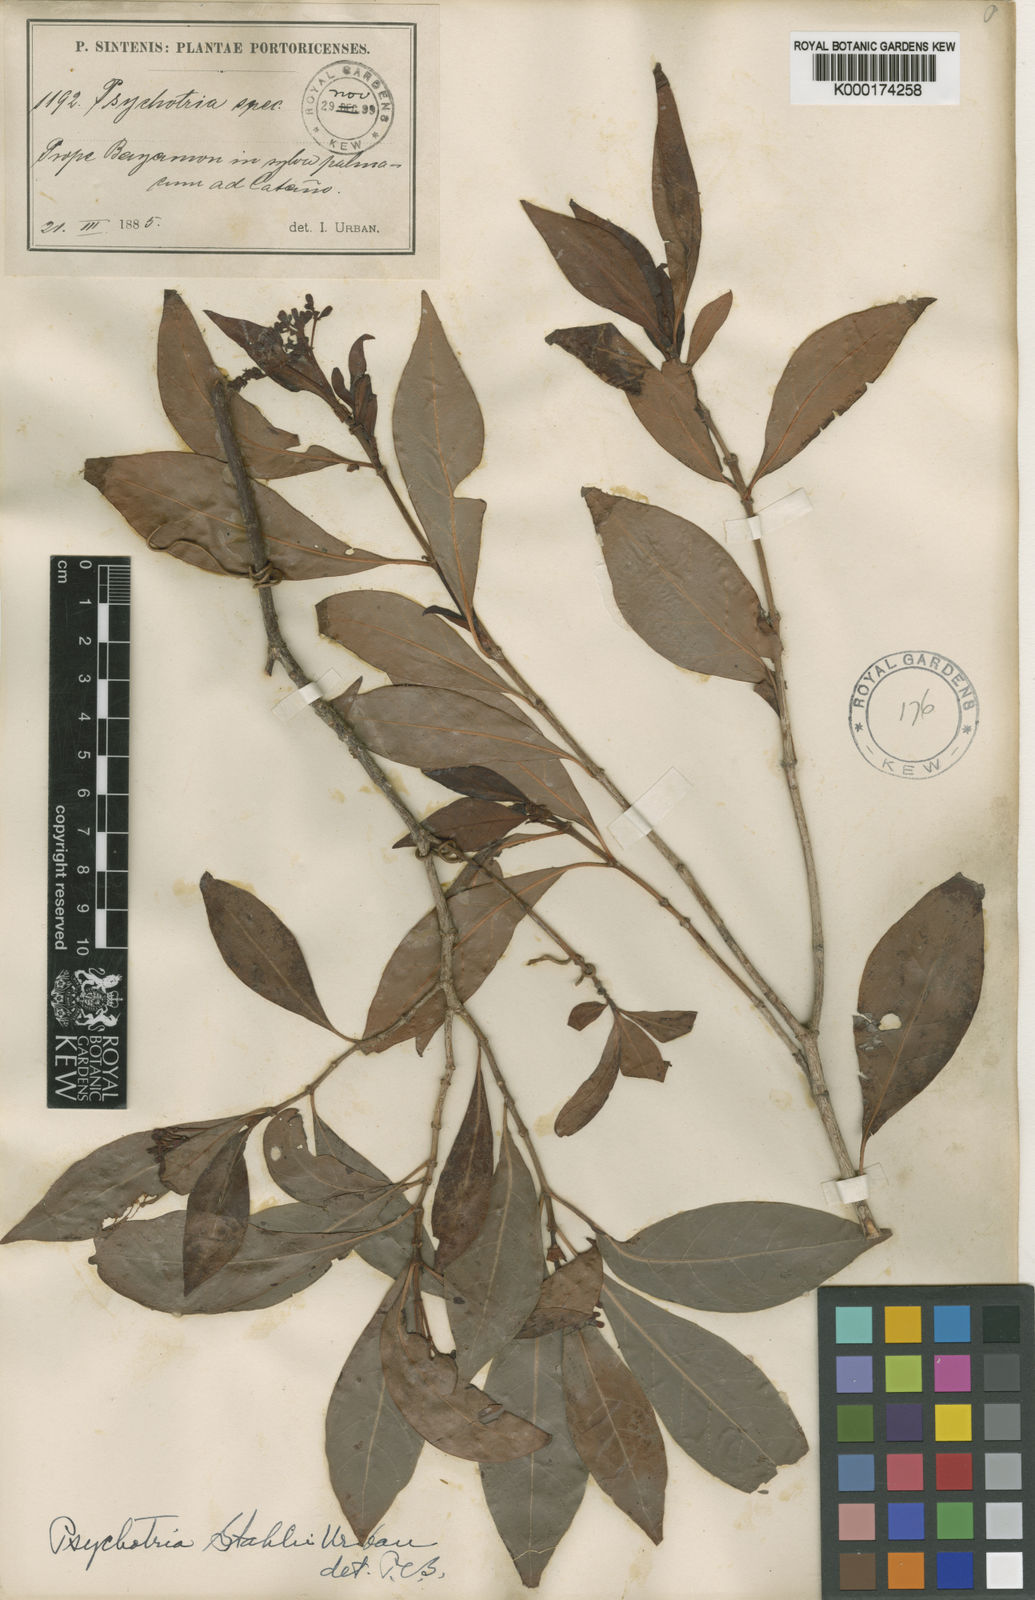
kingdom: Plantae
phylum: Tracheophyta
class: Magnoliopsida
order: Gentianales
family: Rubiaceae
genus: Psychotria
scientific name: Psychotria ligustrifolia
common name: Bahama wild coffee
